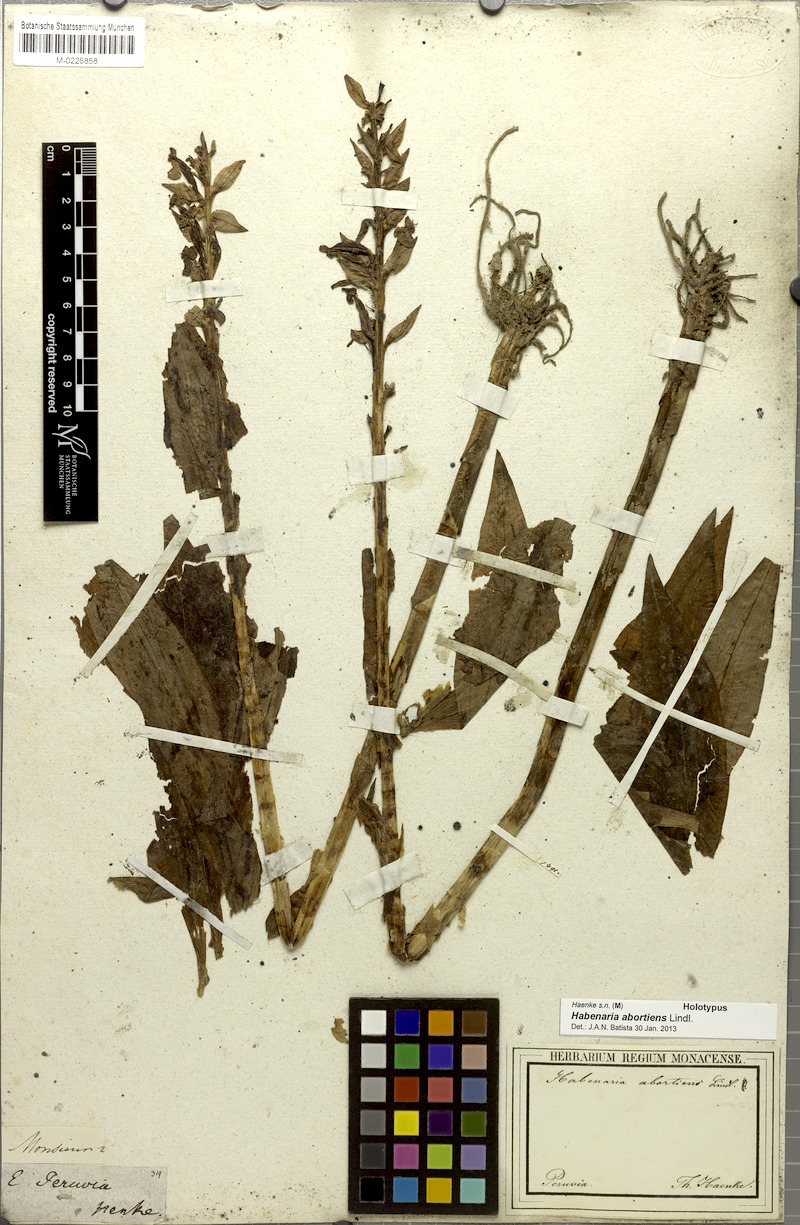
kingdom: Plantae
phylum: Tracheophyta
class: Liliopsida
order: Asparagales
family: Orchidaceae
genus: Habenaria
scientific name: Habenaria abortiens
